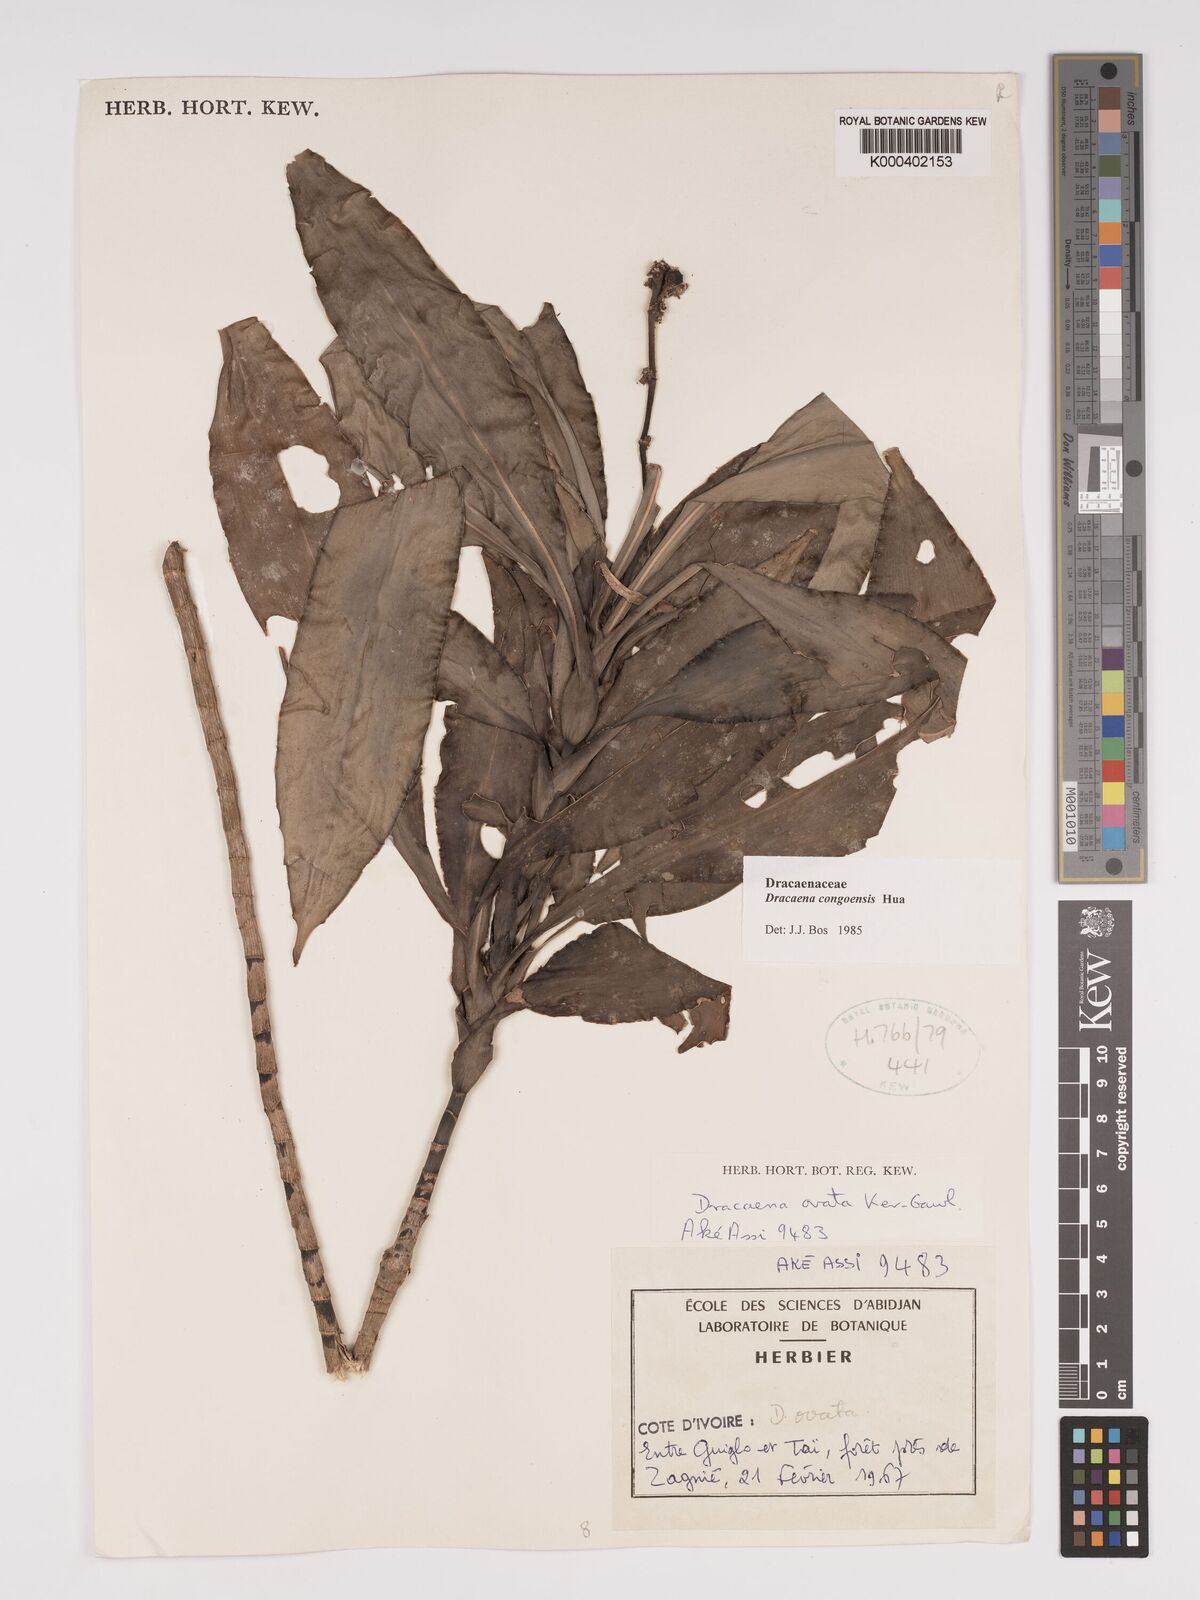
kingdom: Plantae
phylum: Tracheophyta
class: Liliopsida
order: Asparagales
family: Asparagaceae
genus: Dracaena
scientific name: Dracaena congoensis
